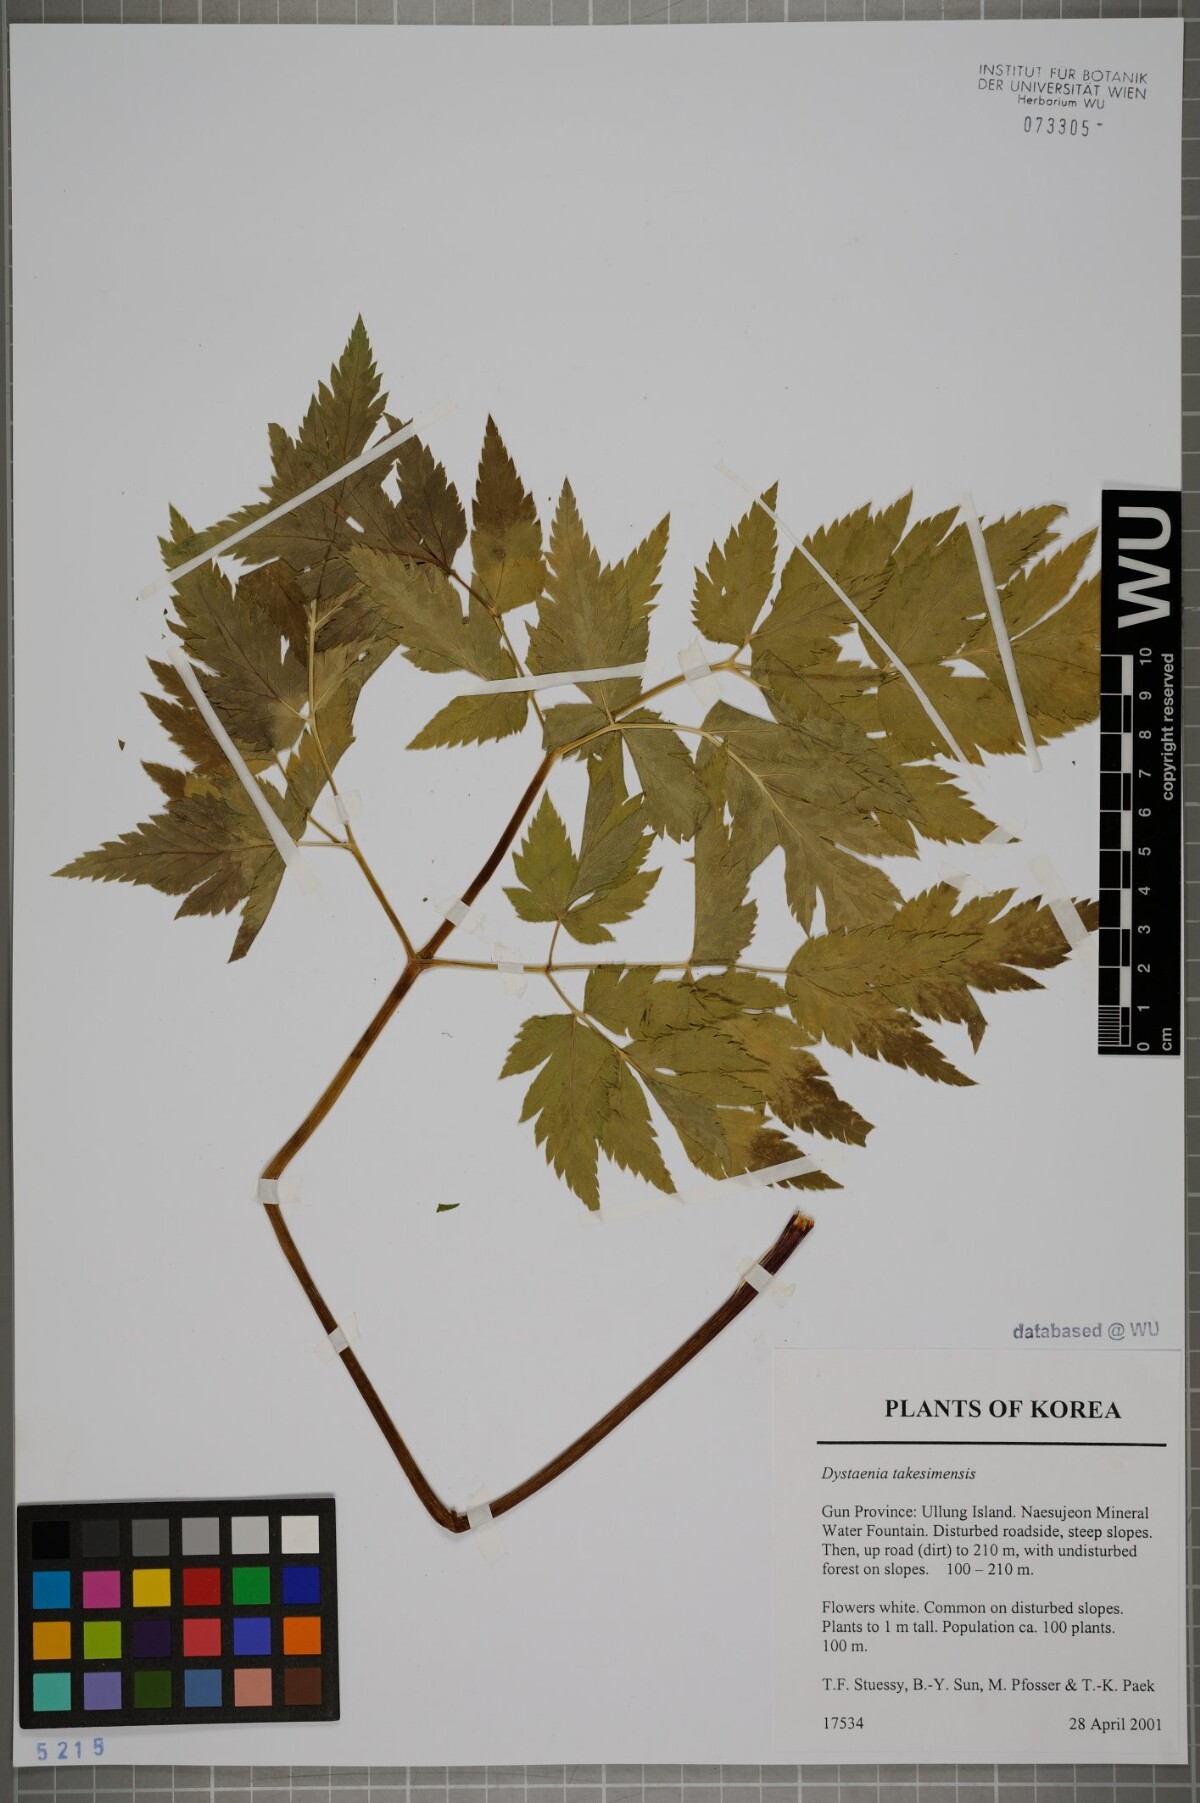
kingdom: Plantae
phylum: Tracheophyta
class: Magnoliopsida
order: Apiales
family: Apiaceae
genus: Dystaenia
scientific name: Dystaenia takeshimana
